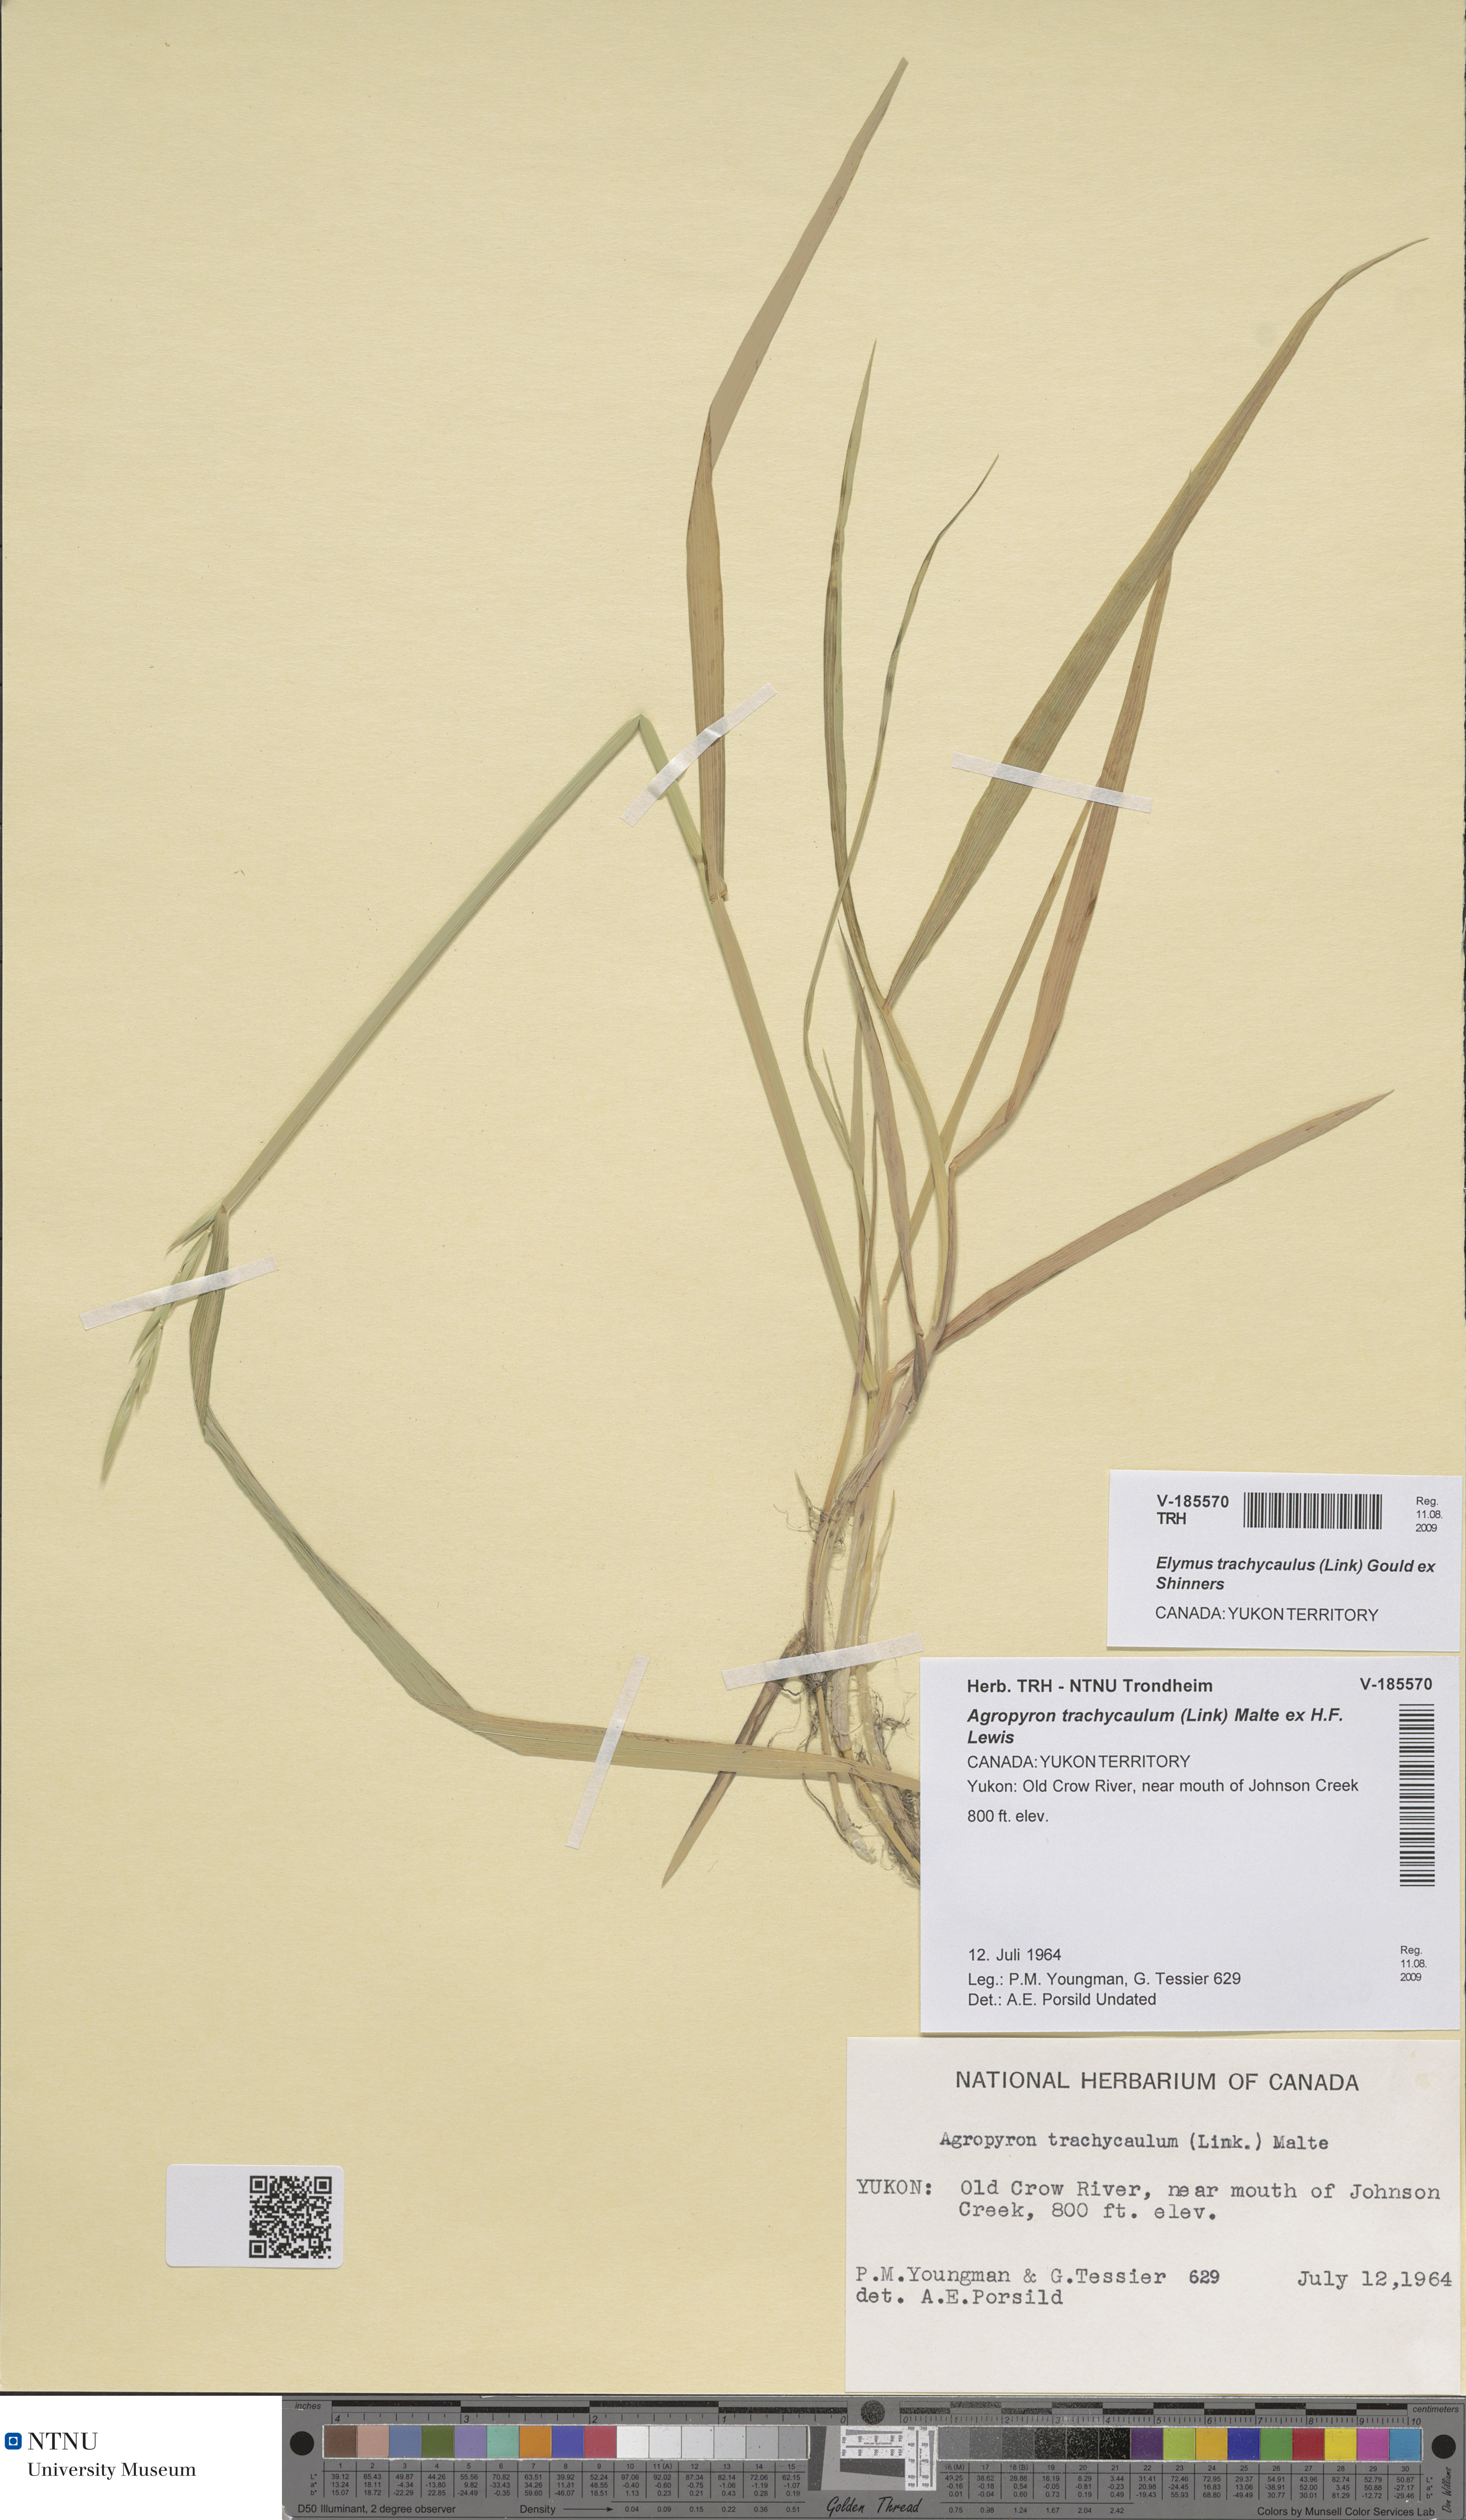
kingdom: Plantae
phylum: Tracheophyta
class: Liliopsida
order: Poales
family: Poaceae
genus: Elymus
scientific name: Elymus violaceus
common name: Arctic wheatgrass
